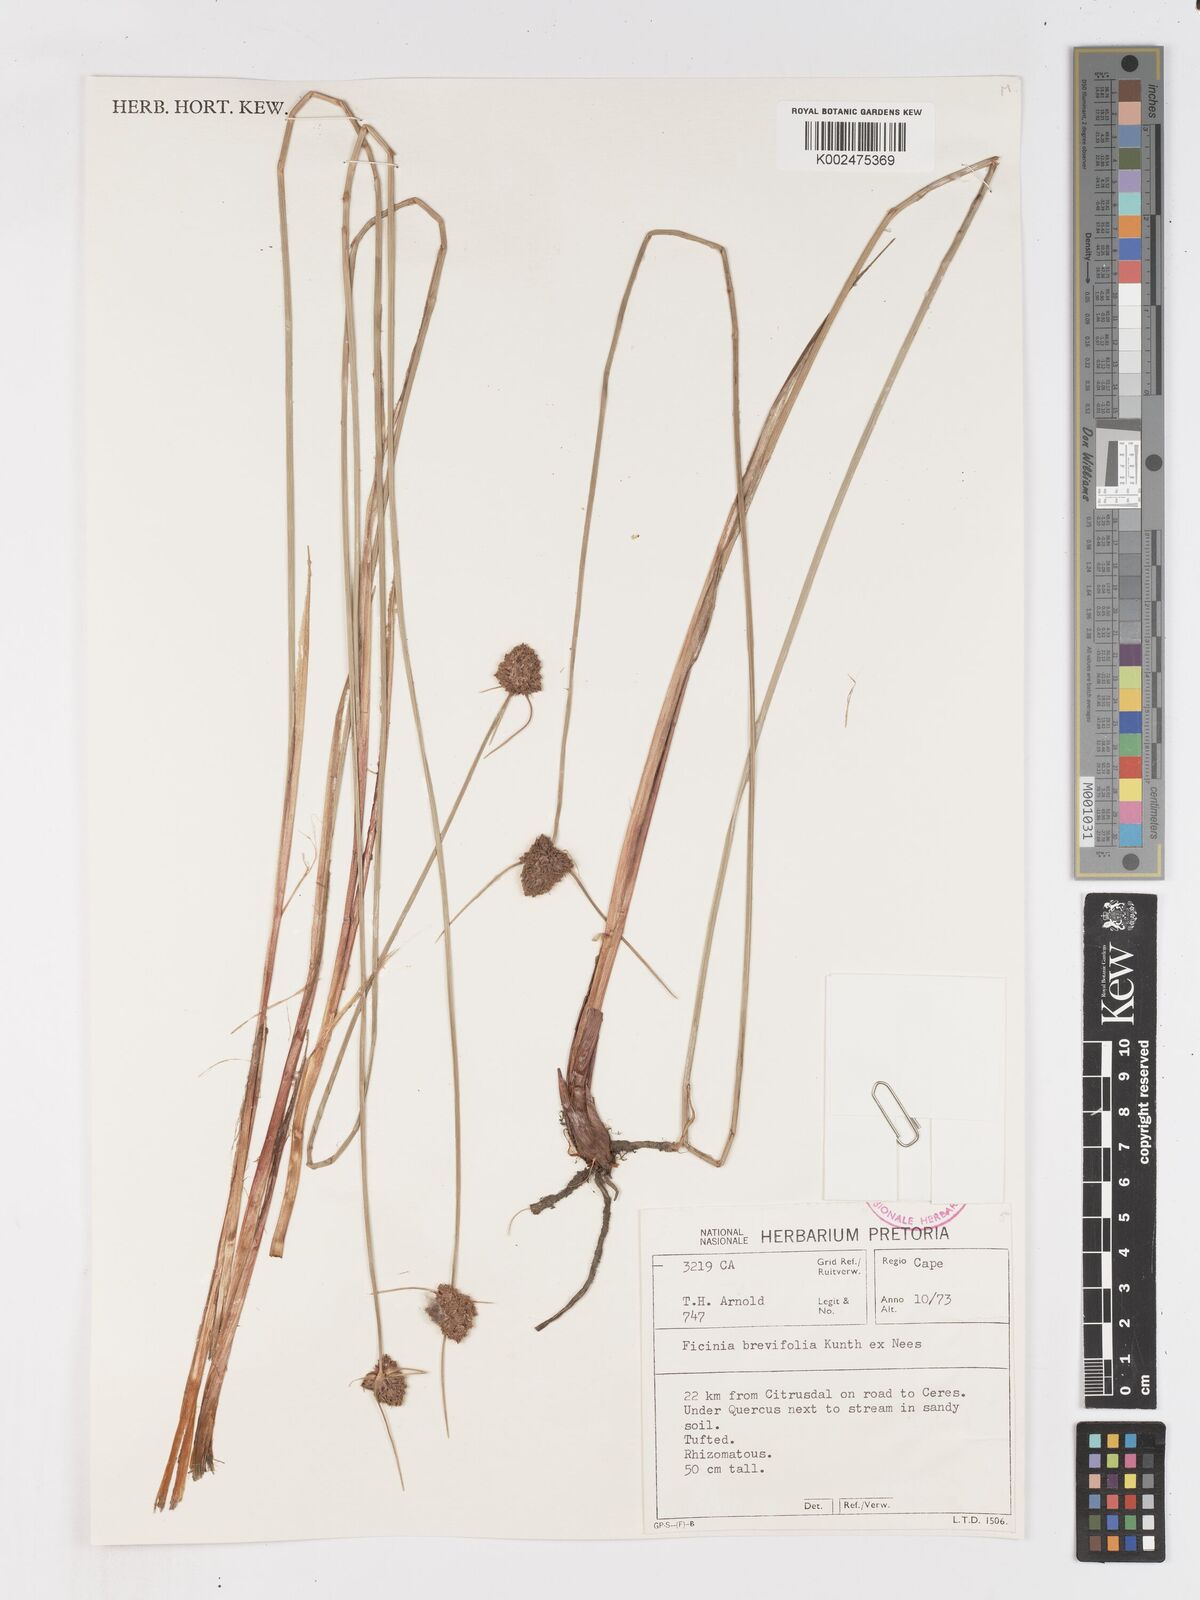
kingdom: Plantae
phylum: Tracheophyta
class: Liliopsida
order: Poales
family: Cyperaceae
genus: Ficinia
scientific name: Ficinia brevifolia
